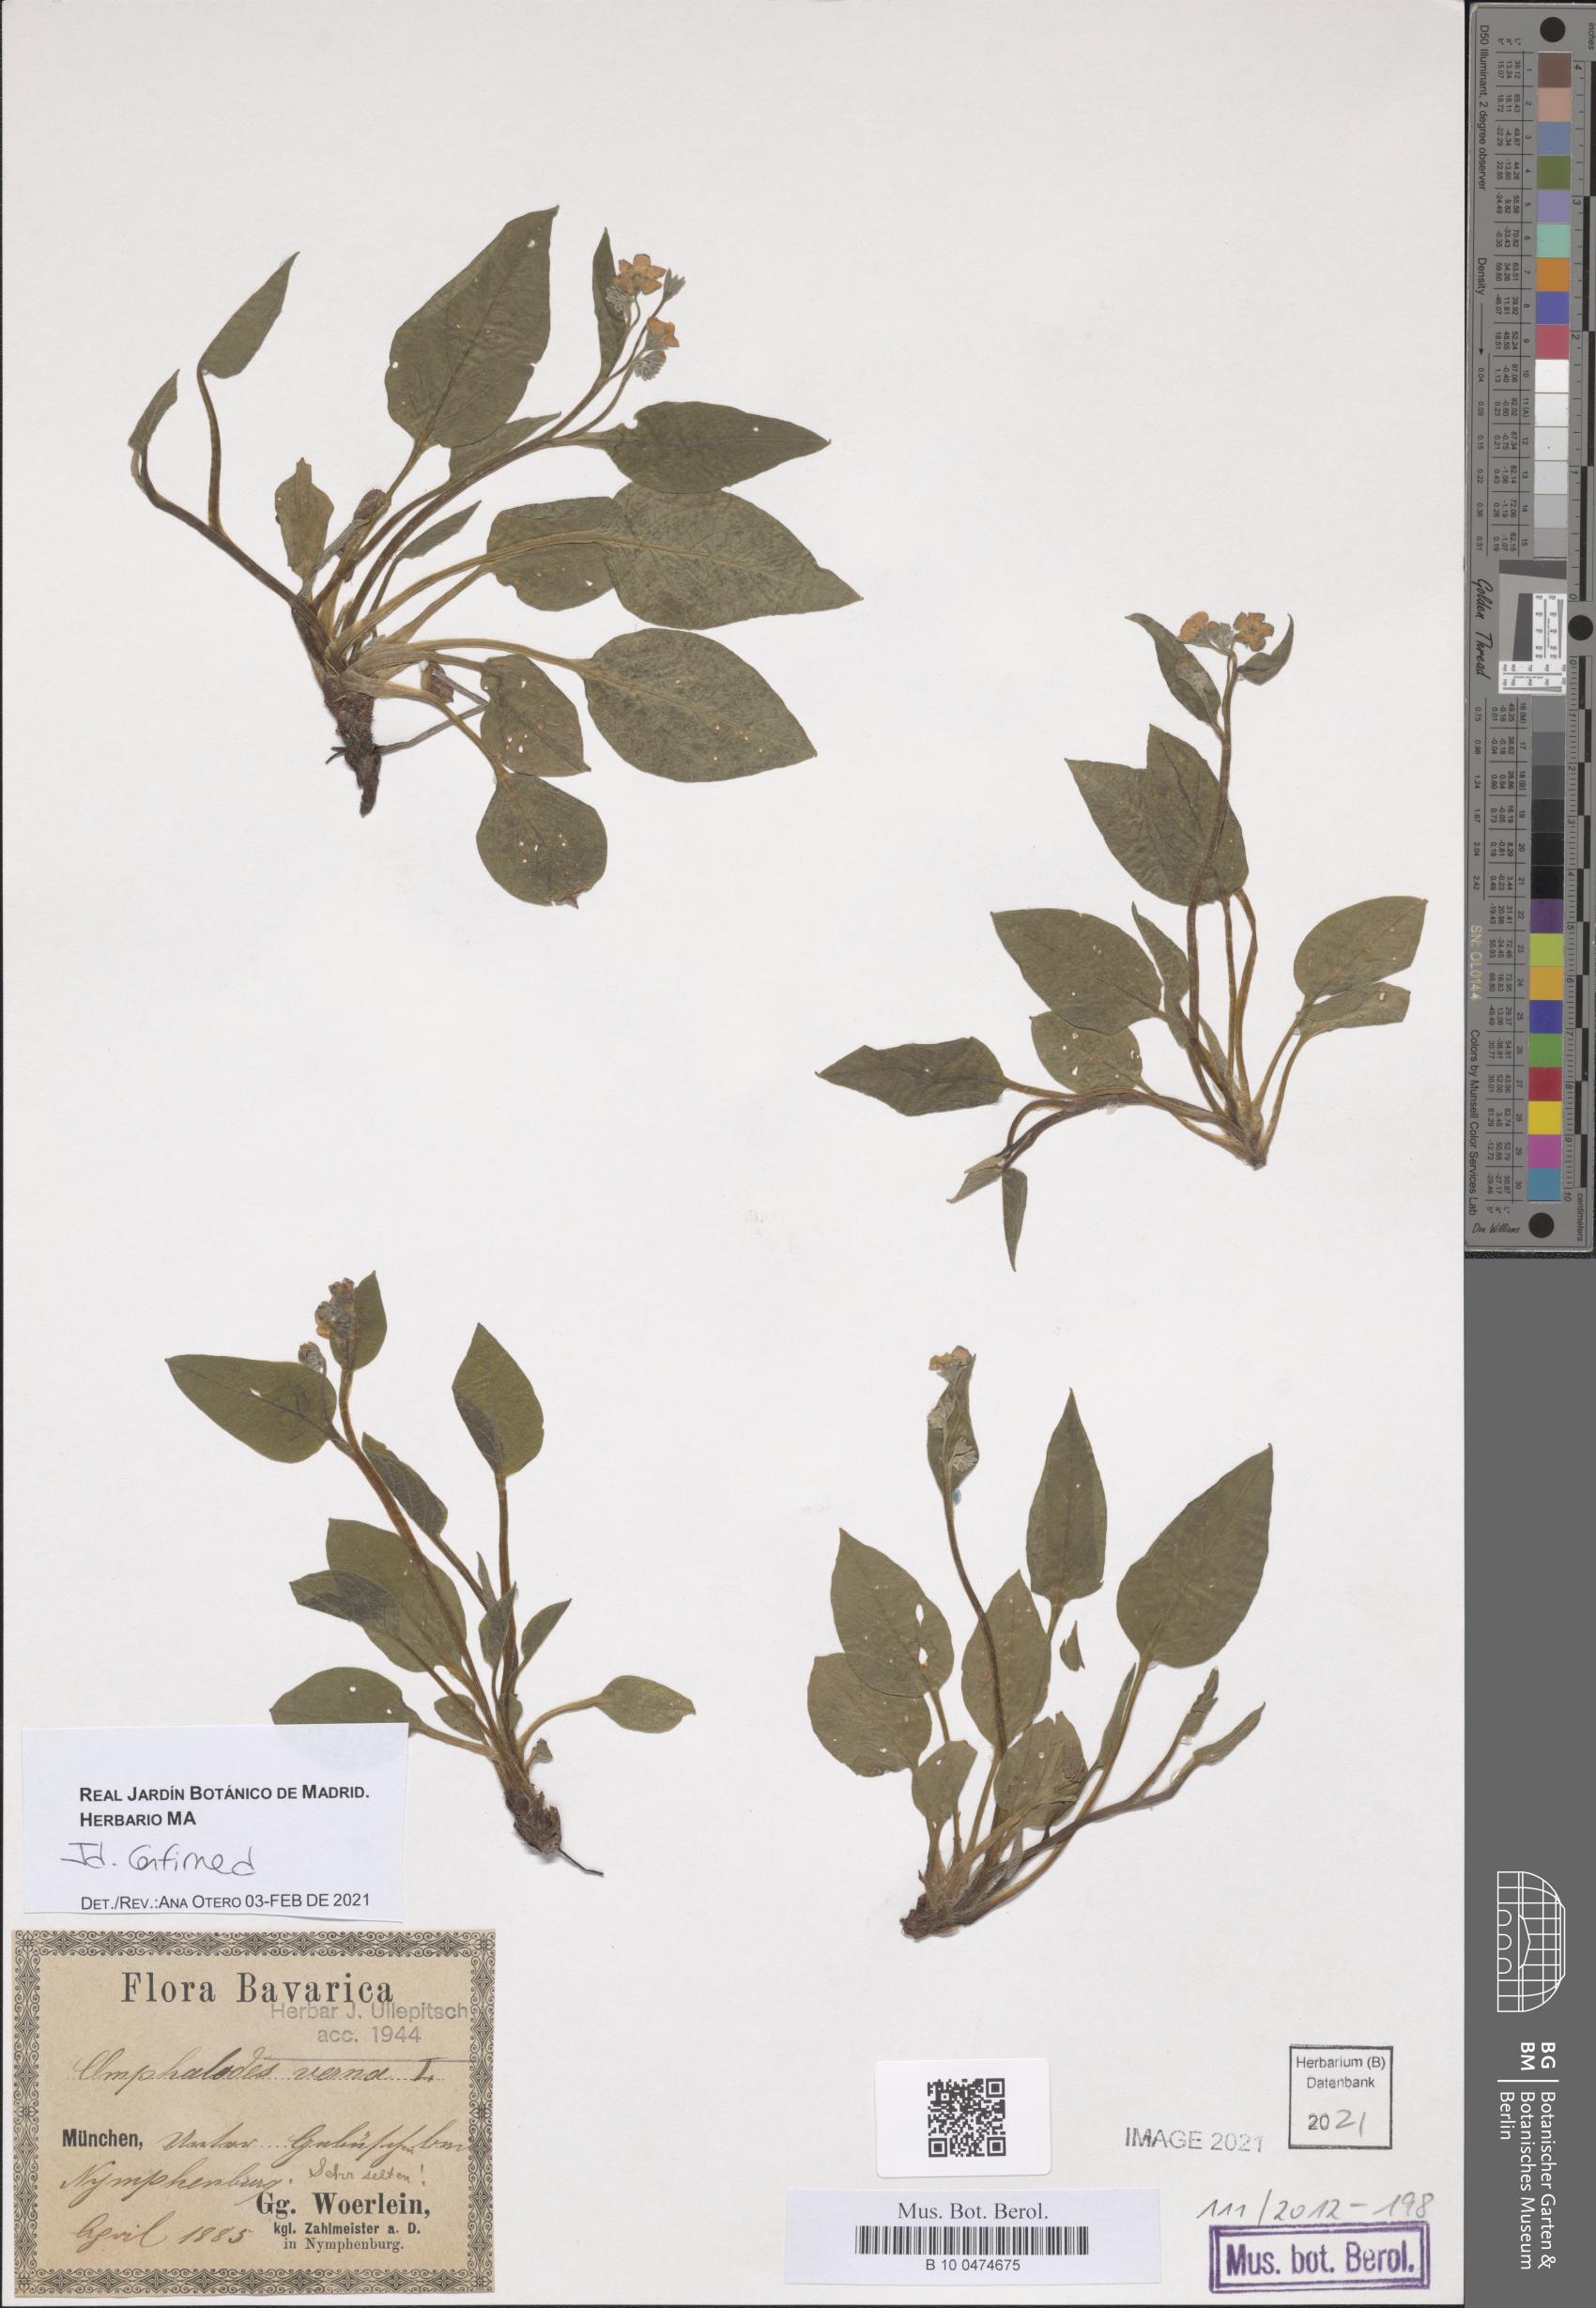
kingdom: Plantae
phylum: Tracheophyta
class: Magnoliopsida
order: Boraginales
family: Boraginaceae
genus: Omphalodes
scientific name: Omphalodes verna
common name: Blue-eyed-mary
